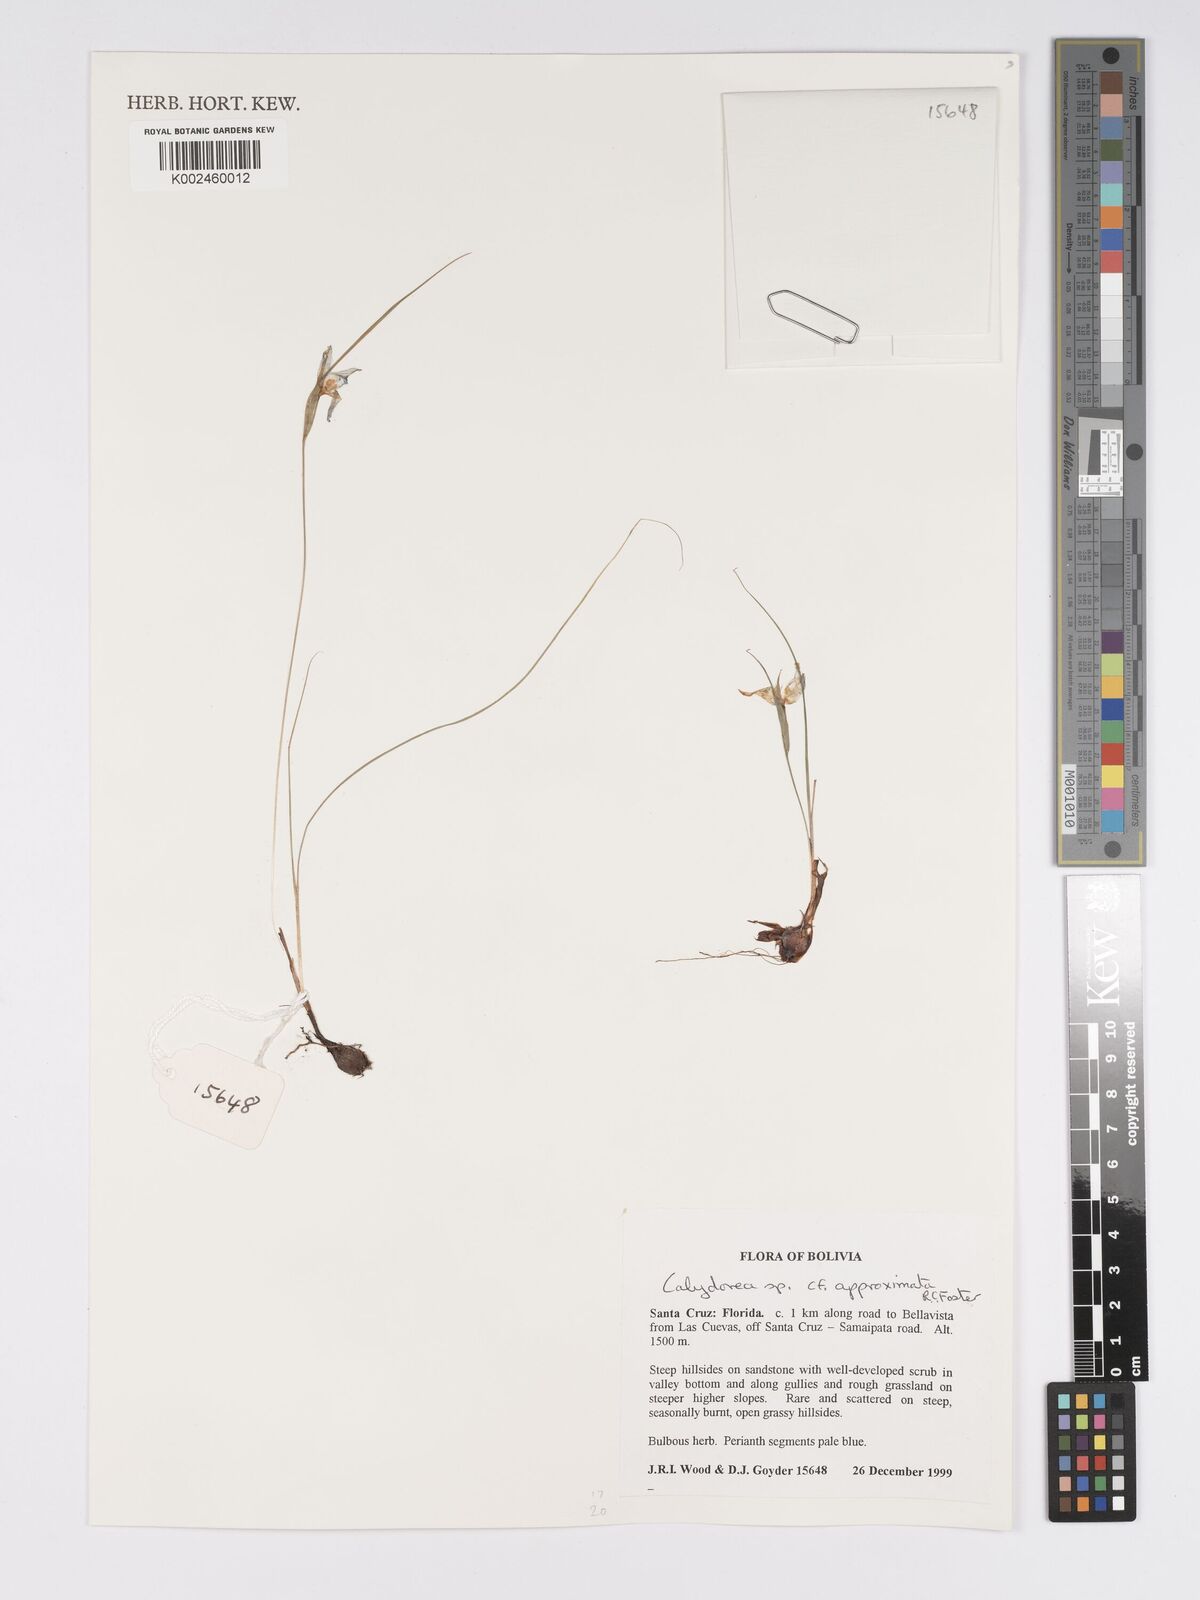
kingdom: Plantae
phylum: Tracheophyta
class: Liliopsida
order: Asparagales
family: Iridaceae
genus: Calydorea
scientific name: Calydorea approximata
